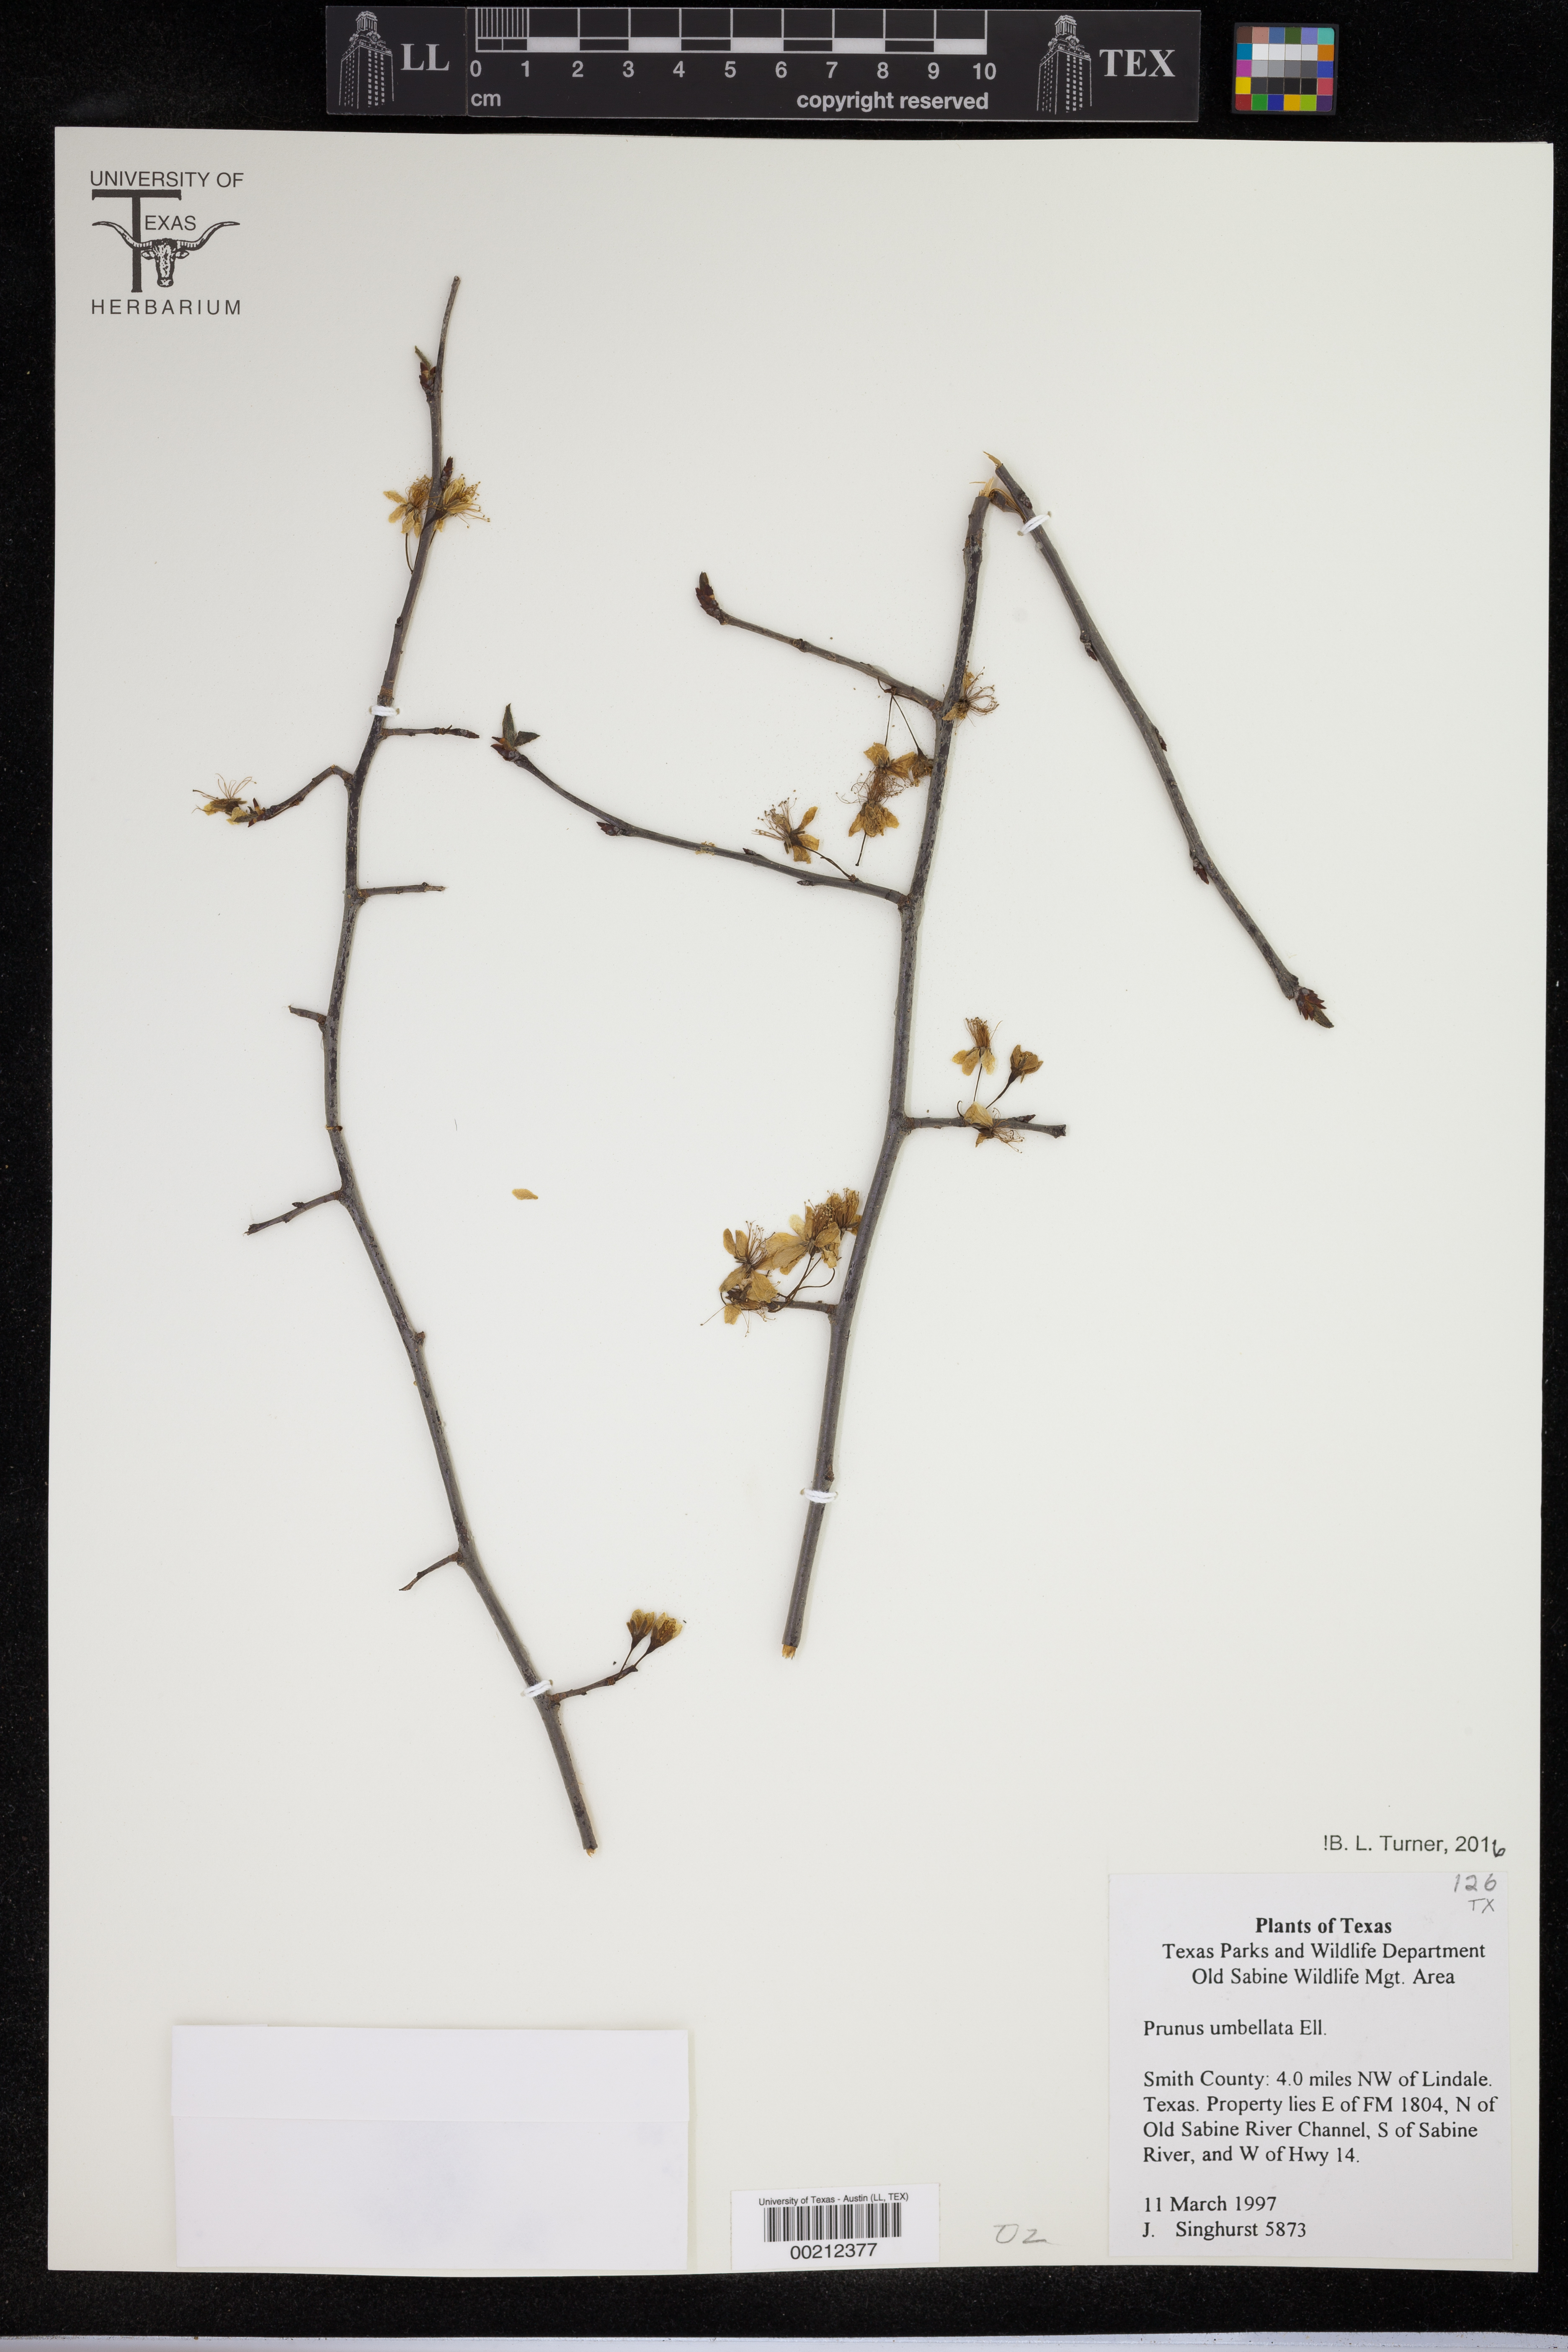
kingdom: Plantae
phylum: Tracheophyta
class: Magnoliopsida
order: Malpighiales
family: Hypericaceae
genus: Hypericum
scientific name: Hypericum crux-andreae
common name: St.-peter's-wort
